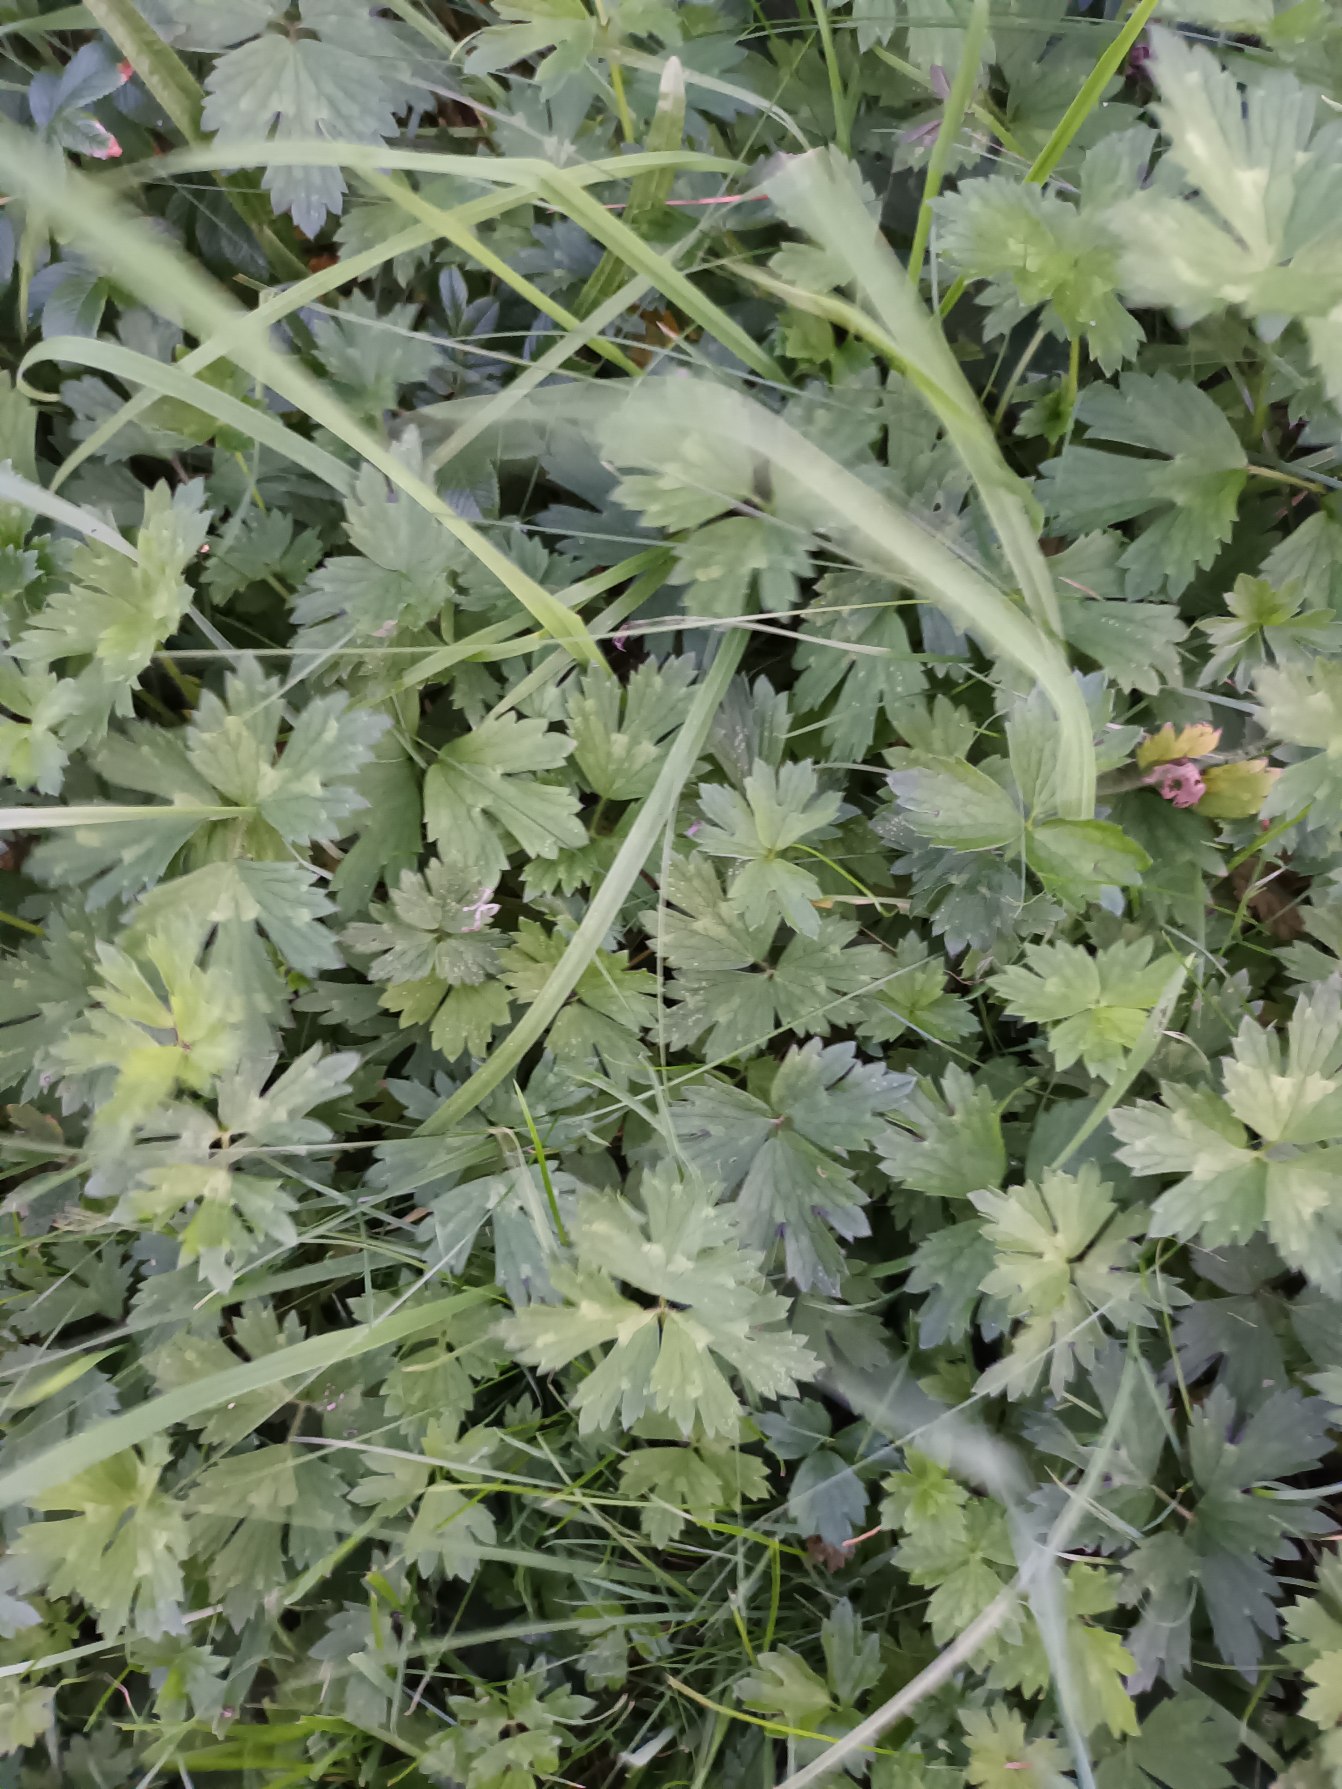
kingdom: Plantae
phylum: Tracheophyta
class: Magnoliopsida
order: Ranunculales
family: Ranunculaceae
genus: Ranunculus
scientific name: Ranunculus repens
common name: Lav ranunkel
